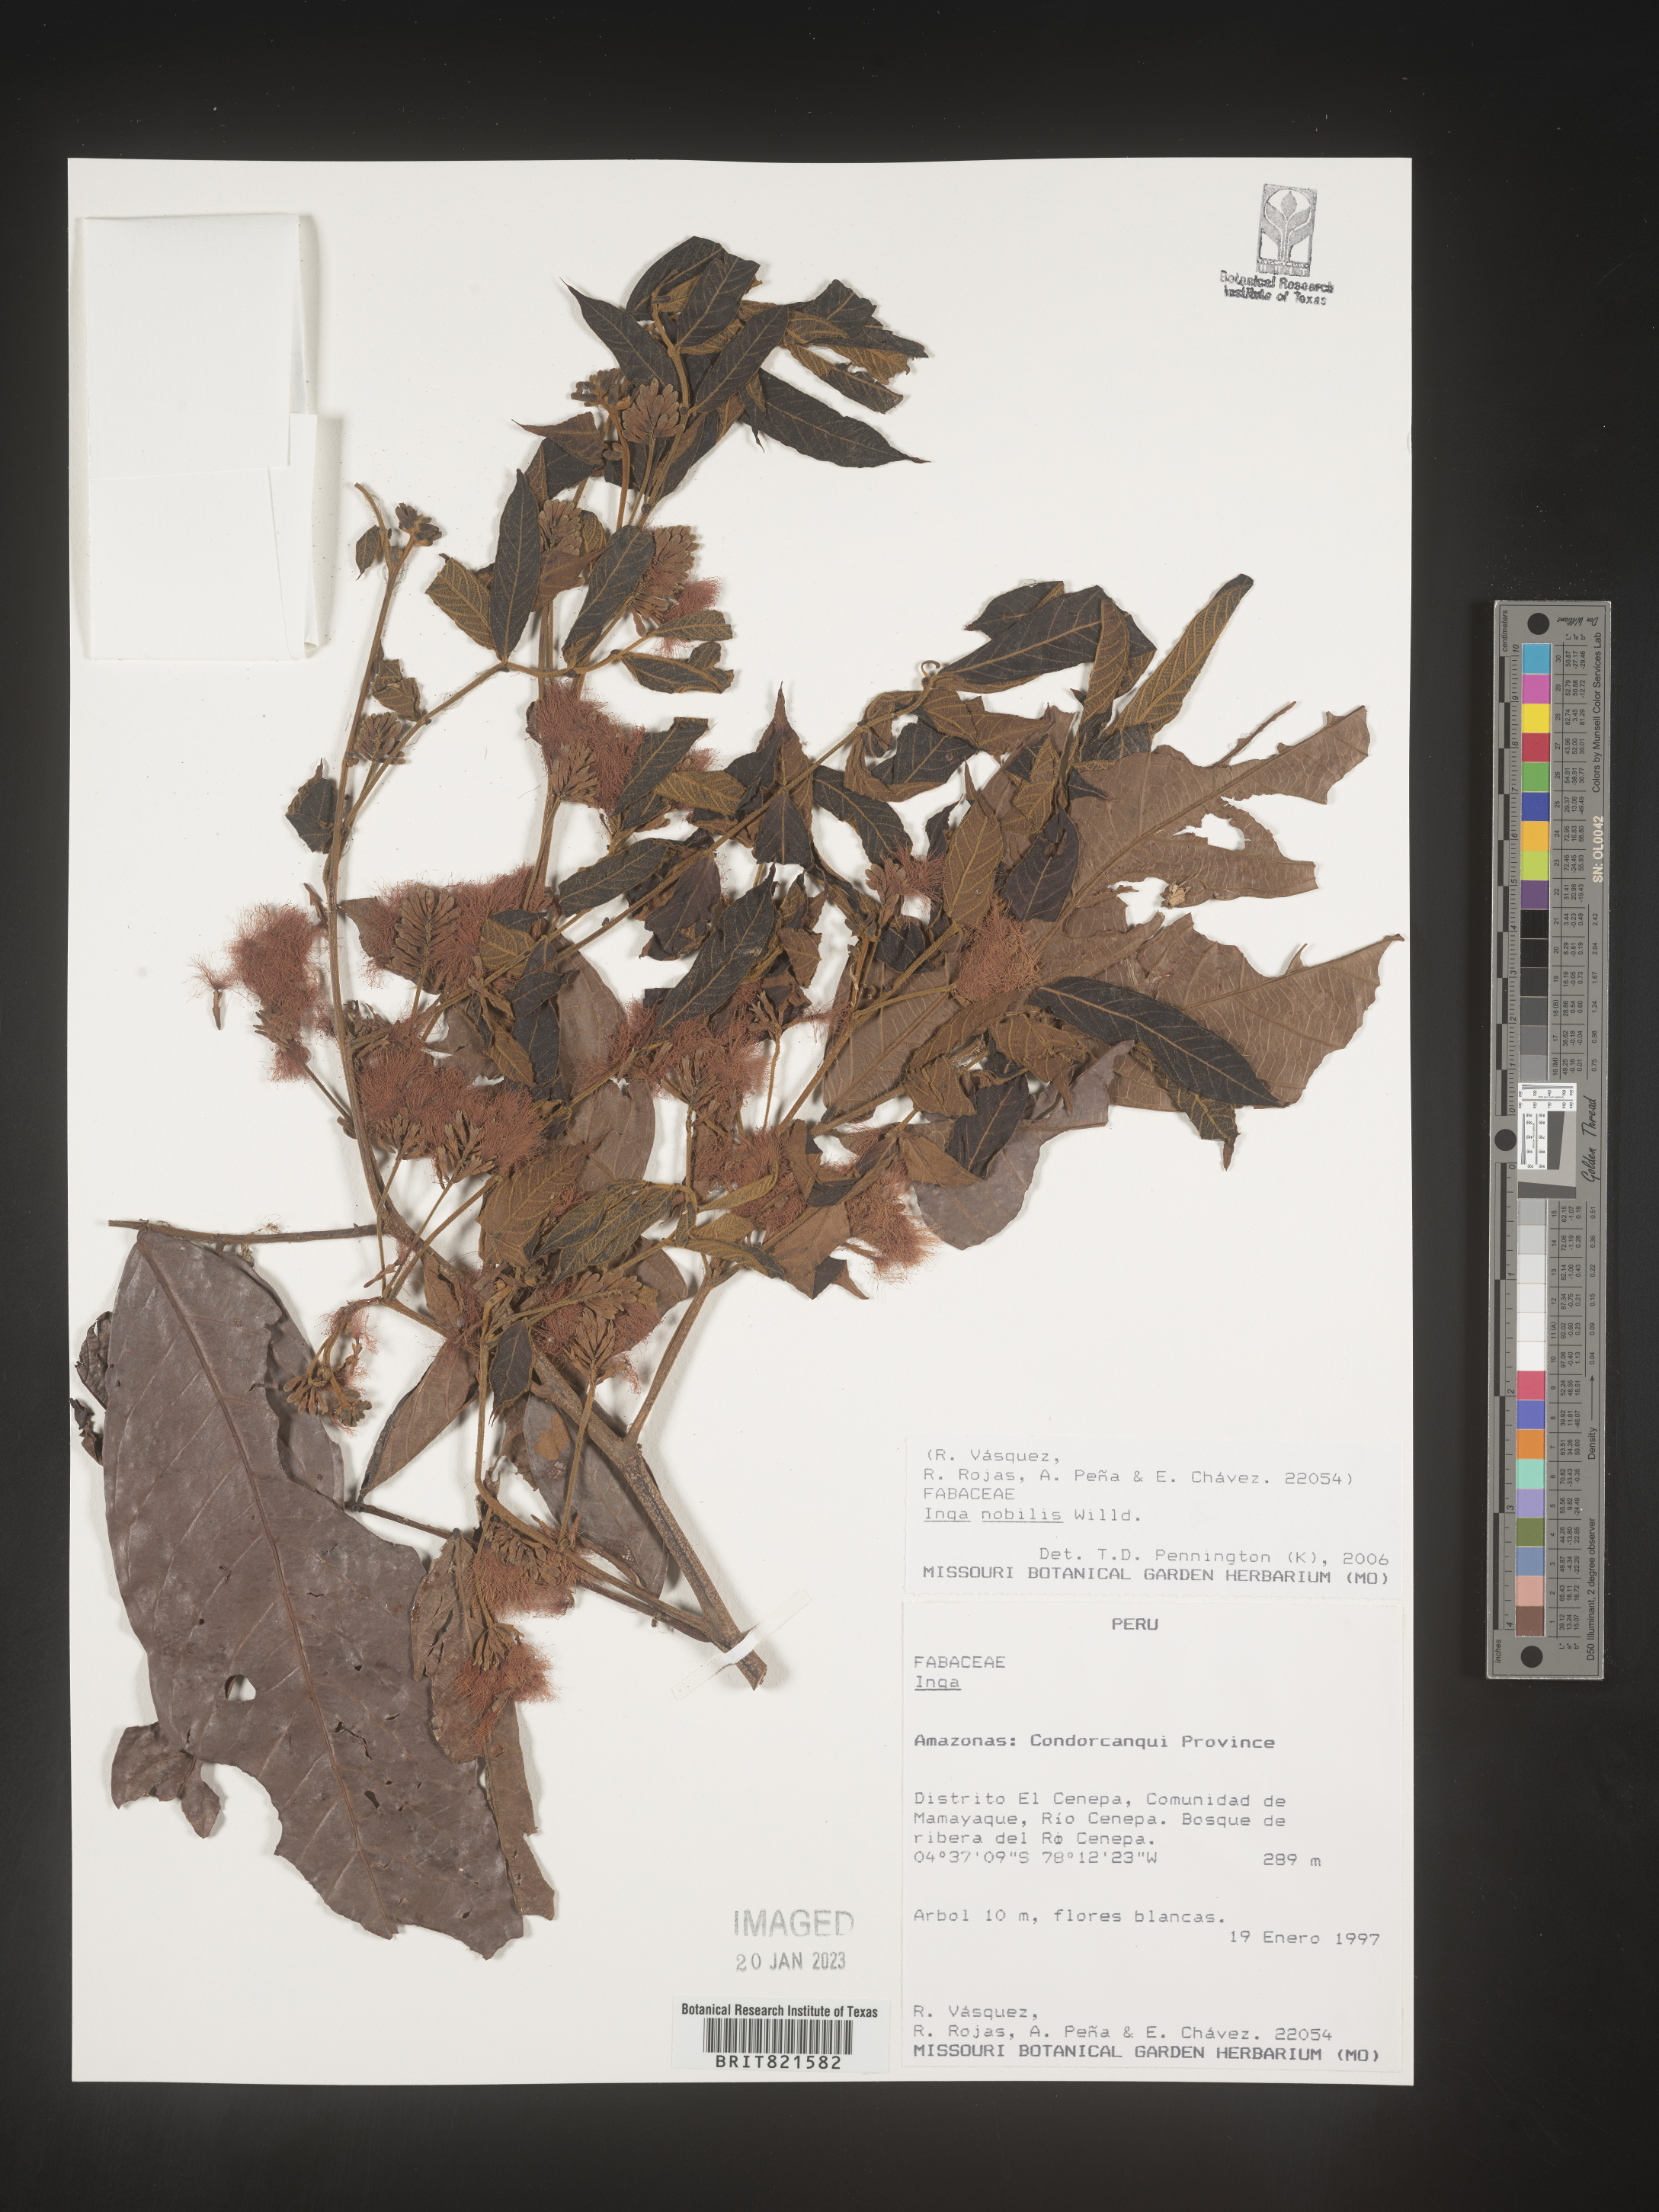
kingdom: Plantae
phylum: Tracheophyta
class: Magnoliopsida
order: Fabales
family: Fabaceae
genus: Inga
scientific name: Inga
